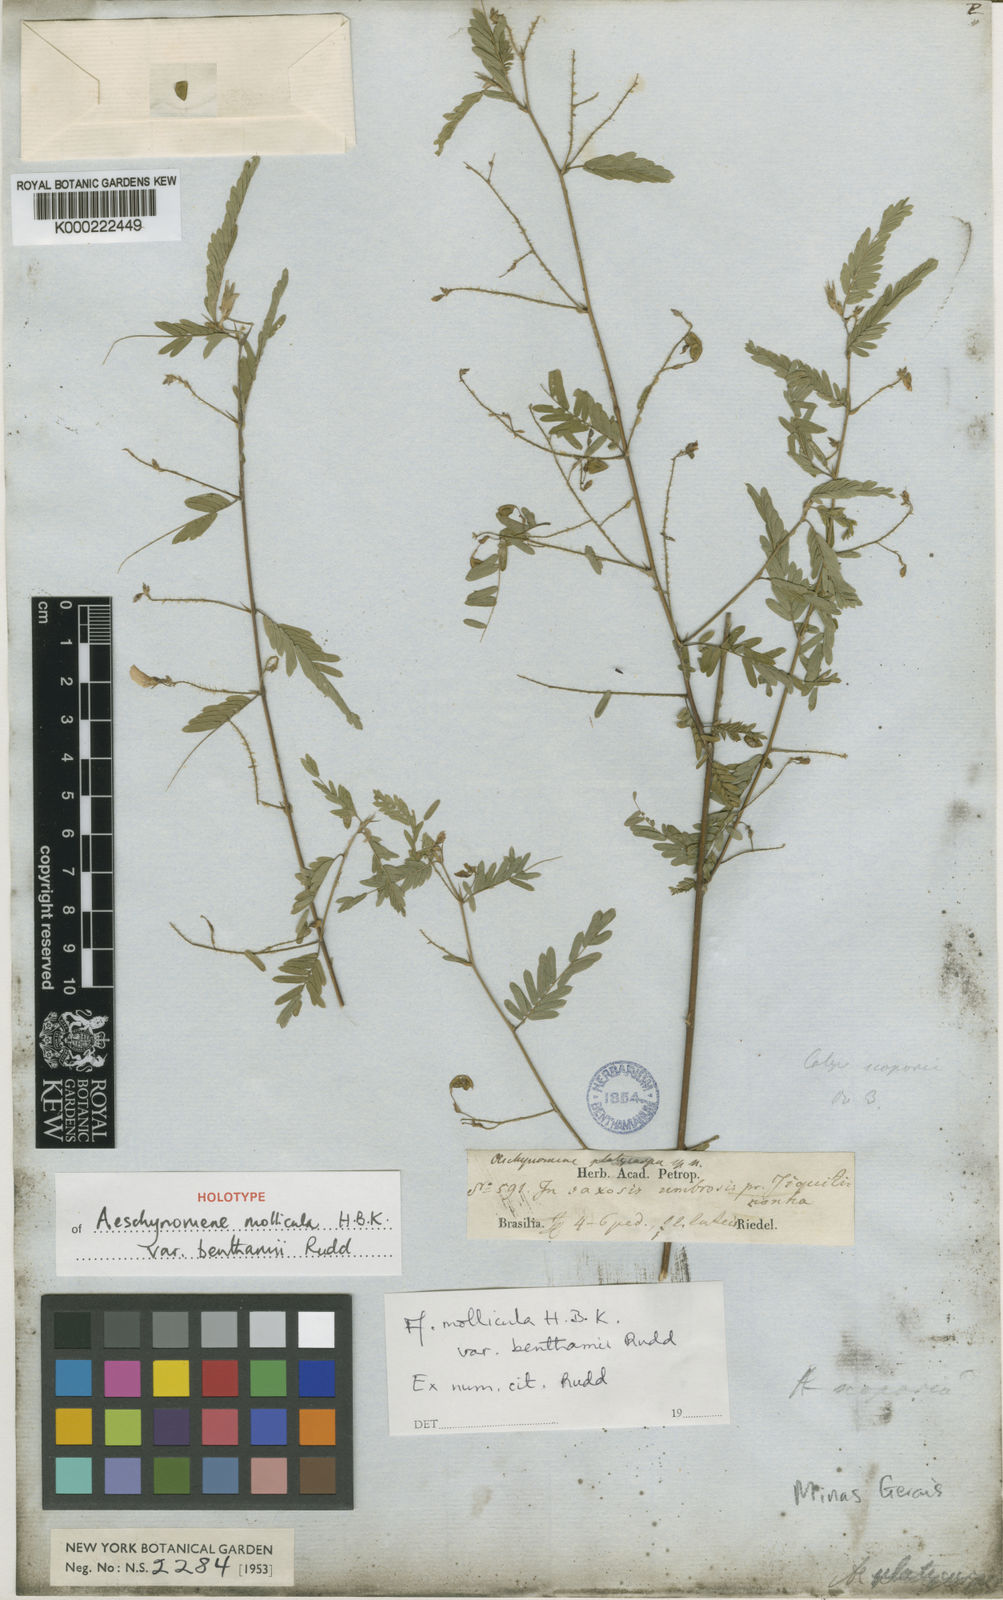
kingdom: Plantae
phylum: Tracheophyta
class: Magnoliopsida
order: Fabales
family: Fabaceae
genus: Ctenodon
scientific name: Ctenodon molliculus
